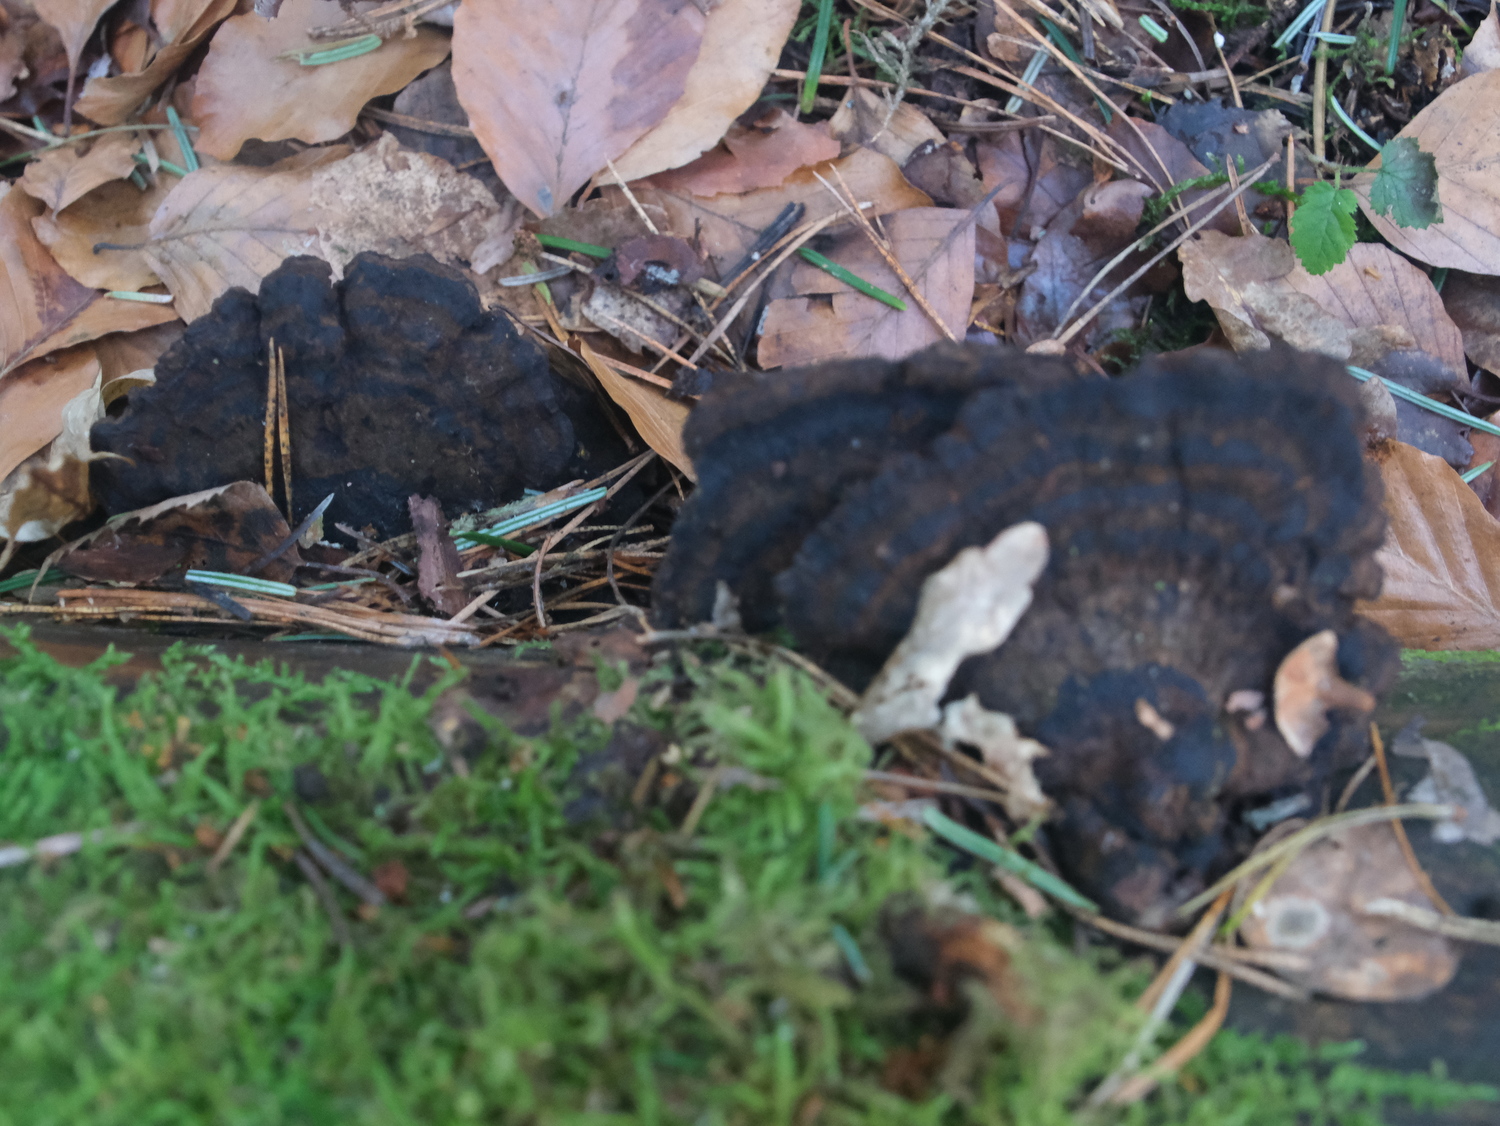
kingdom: Fungi
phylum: Basidiomycota
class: Agaricomycetes
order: Polyporales
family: Ischnodermataceae
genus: Ischnoderma
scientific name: Ischnoderma benzoinum
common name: gran-tjæreporesvamp
